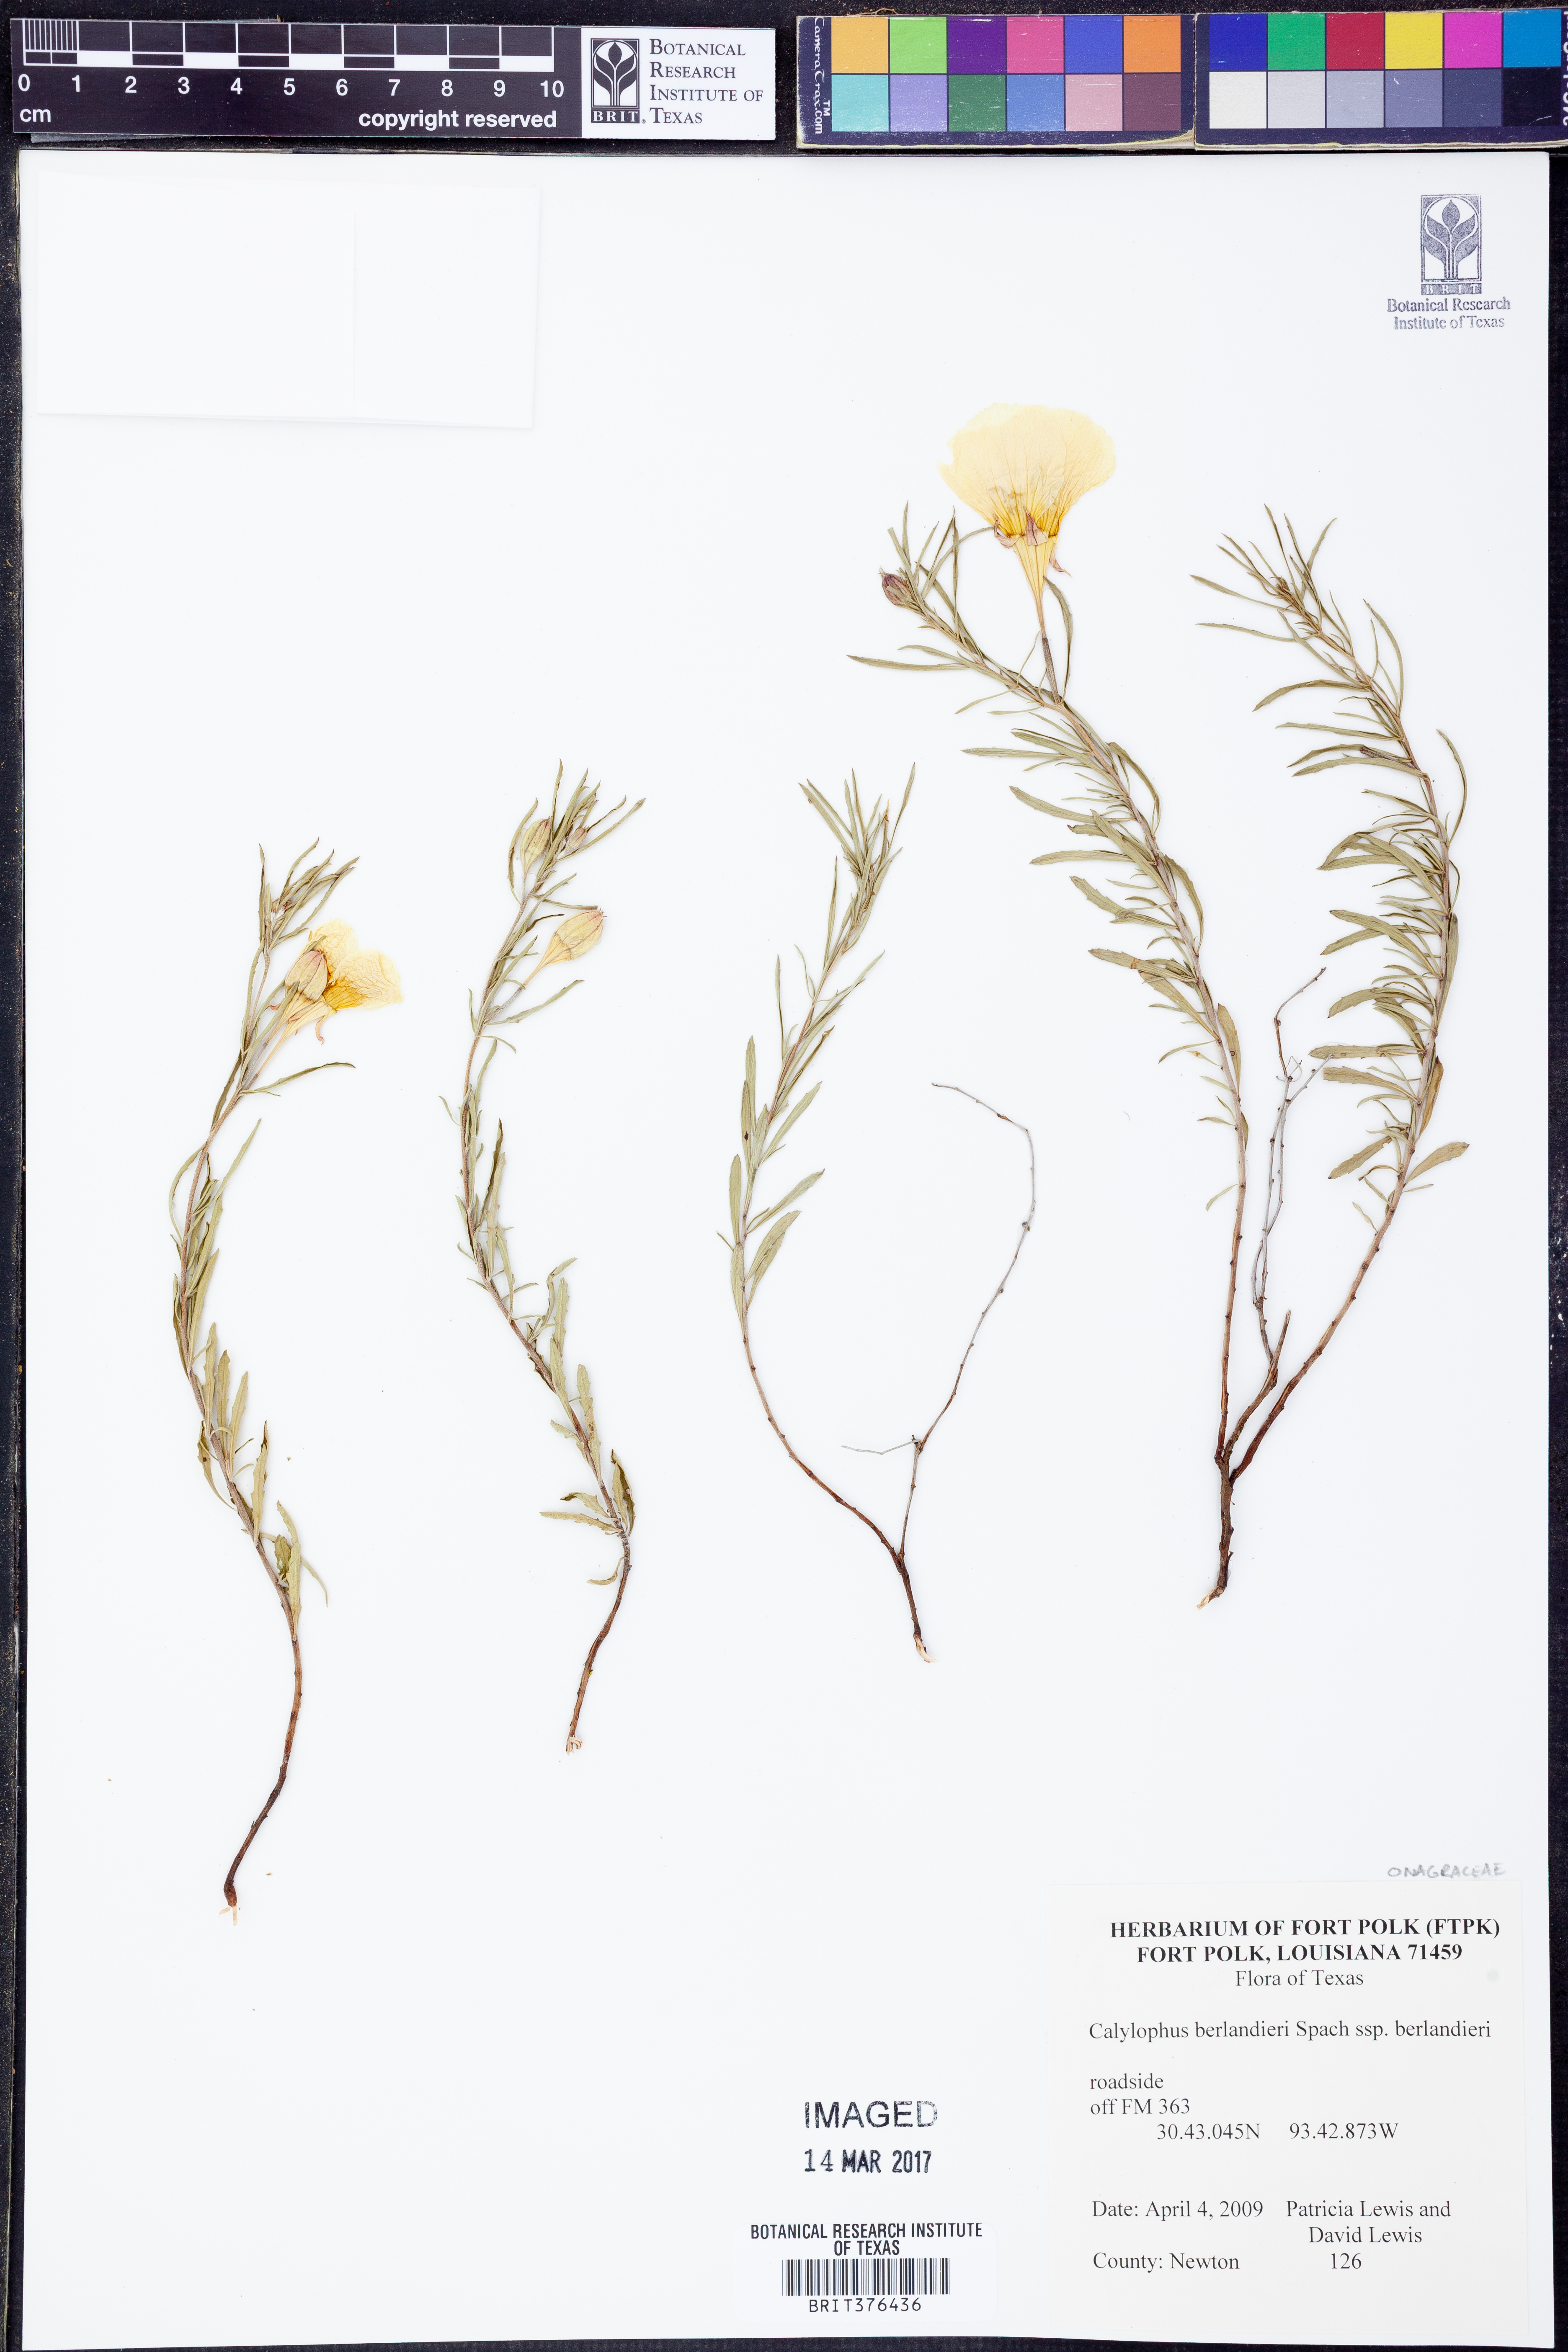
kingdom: Plantae
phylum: Tracheophyta
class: Magnoliopsida
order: Myrtales
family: Onagraceae
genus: Oenothera
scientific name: Oenothera capillifolia
